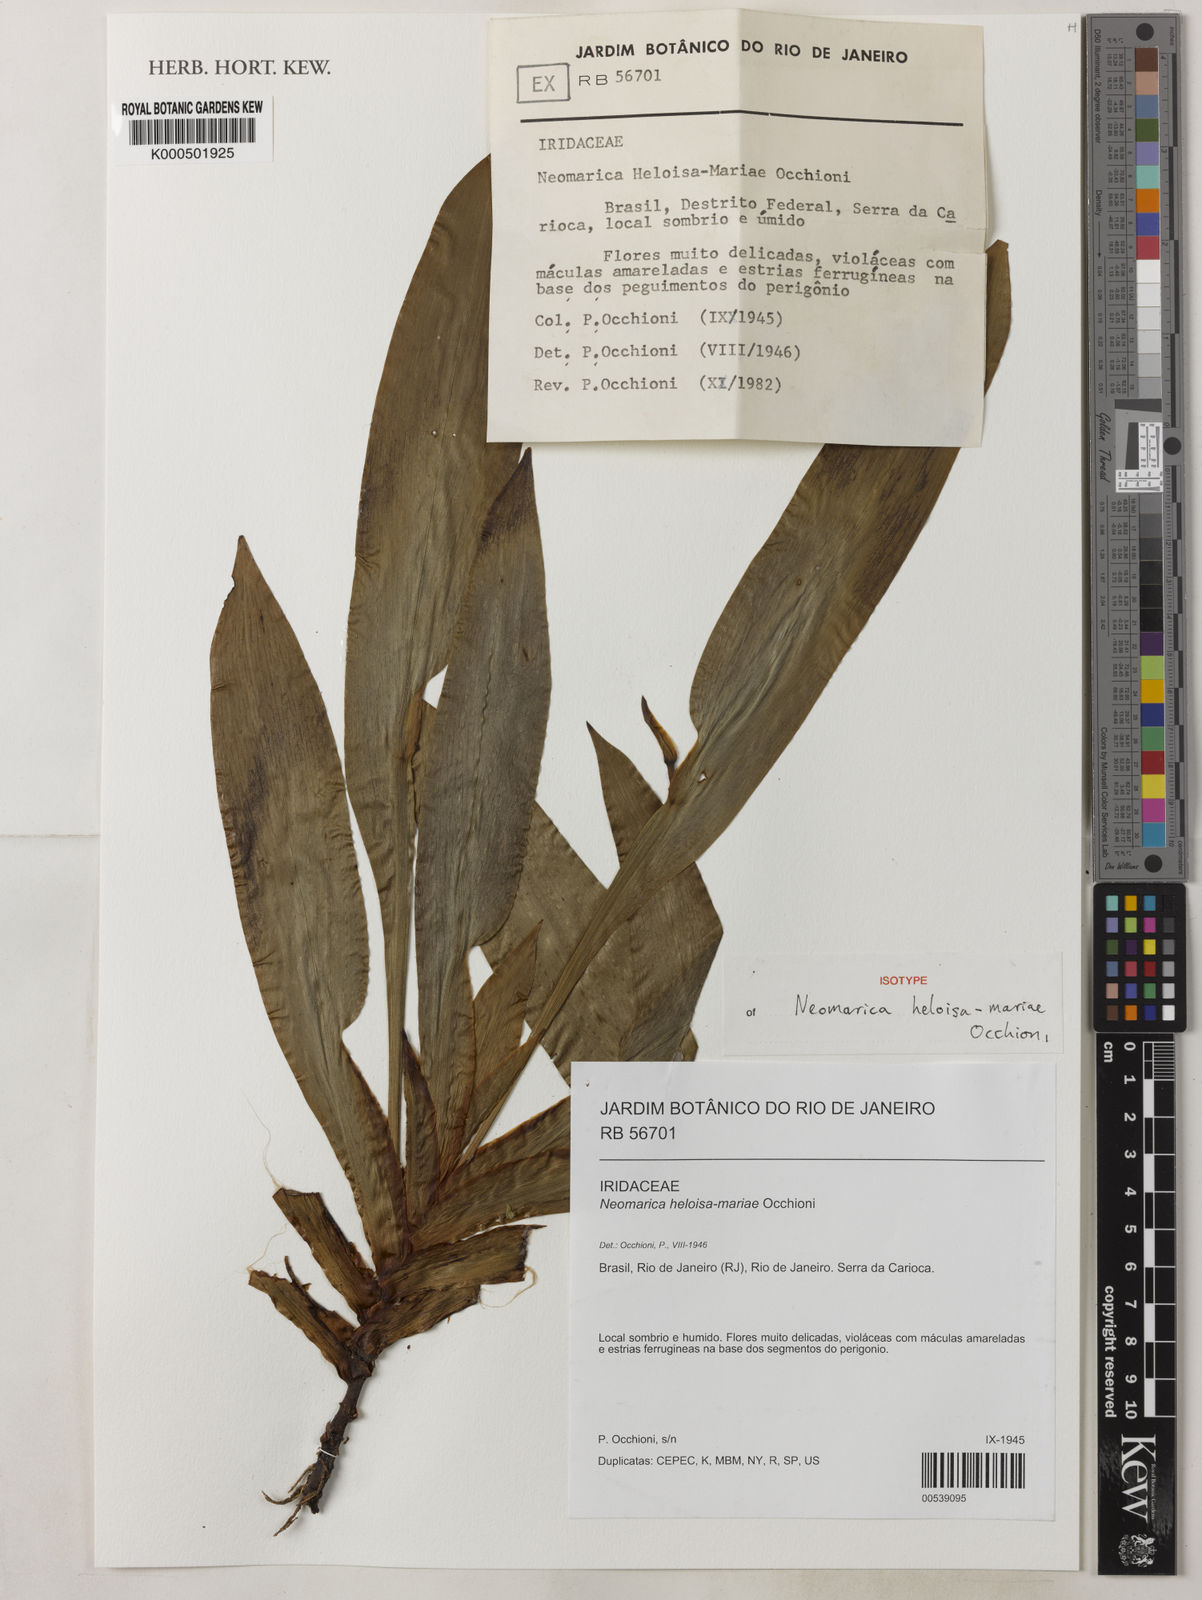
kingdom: Plantae
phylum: Tracheophyta
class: Liliopsida
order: Asparagales
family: Iridaceae
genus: Trimezia
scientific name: Trimezia silvestris
